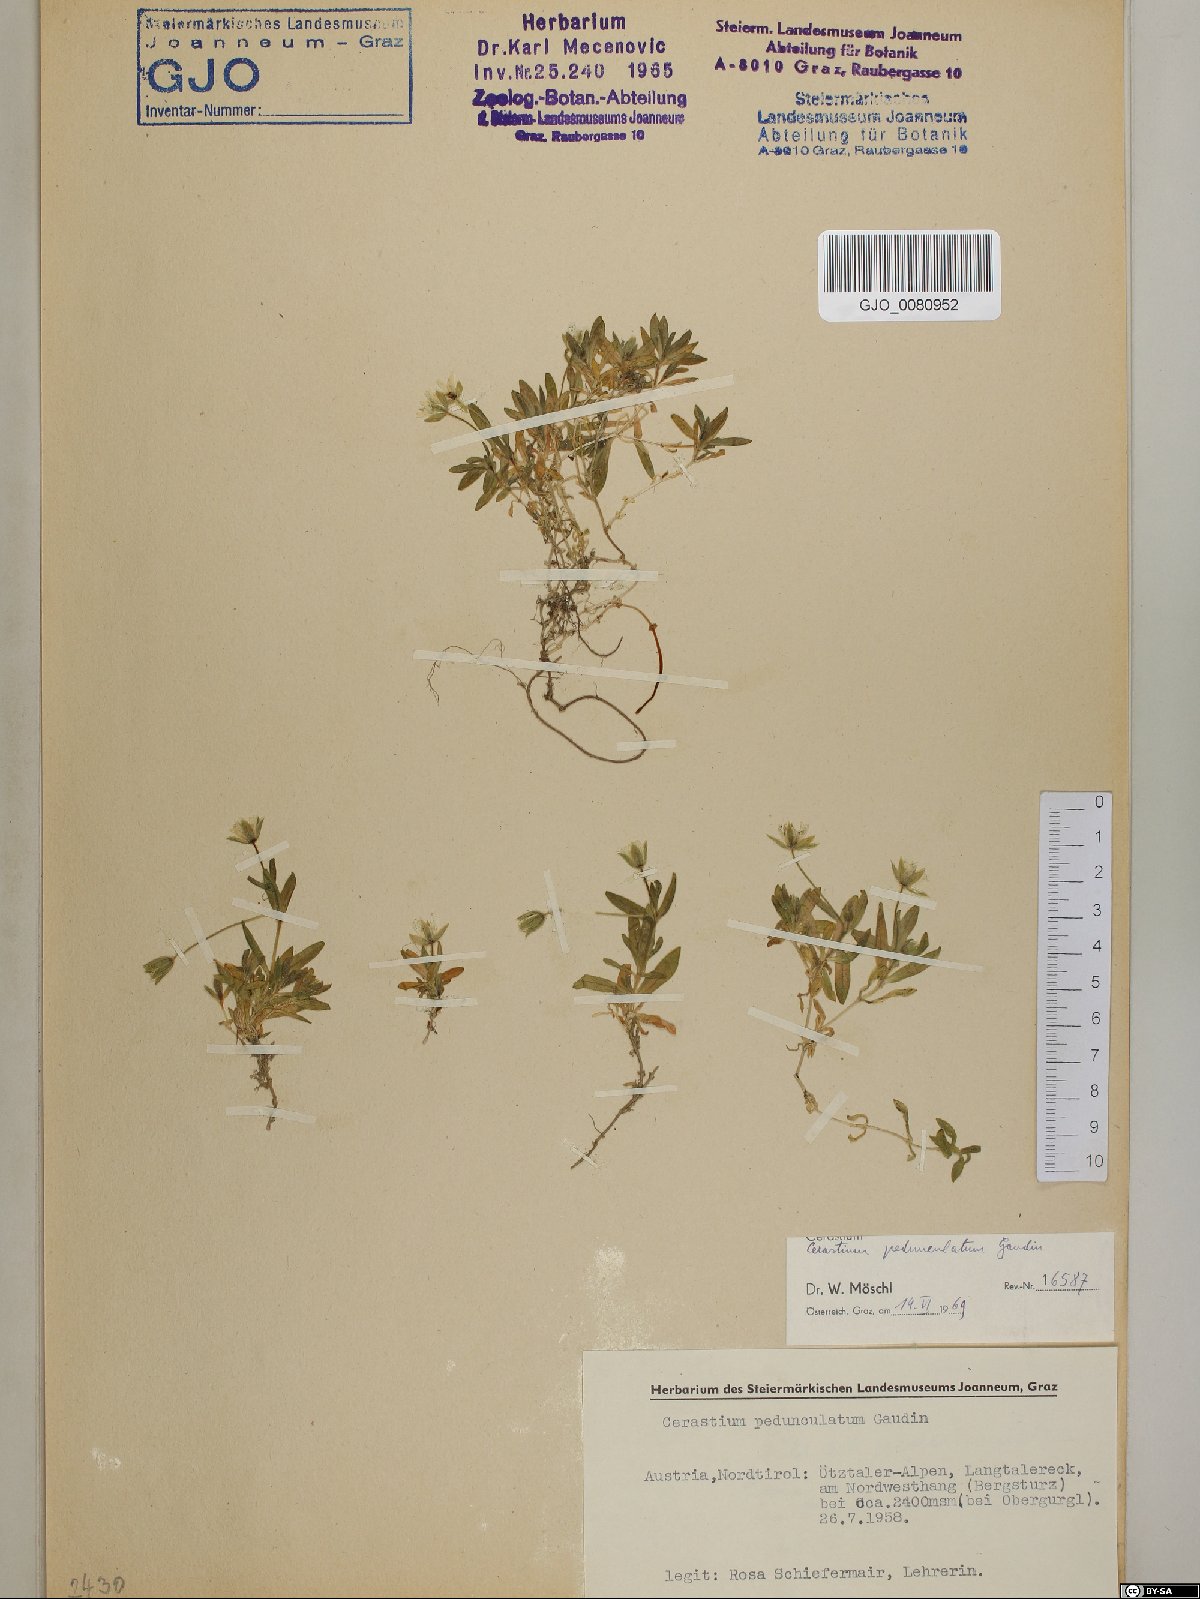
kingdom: Plantae
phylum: Tracheophyta
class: Magnoliopsida
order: Caryophyllales
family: Caryophyllaceae
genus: Cerastium
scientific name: Cerastium pedunculatum
